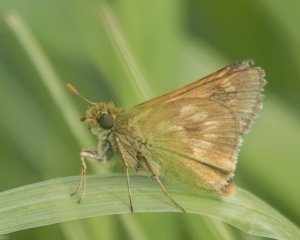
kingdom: Animalia
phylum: Arthropoda
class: Insecta
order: Lepidoptera
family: Hesperiidae
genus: Polites
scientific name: Polites
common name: Long Dash Skipper
